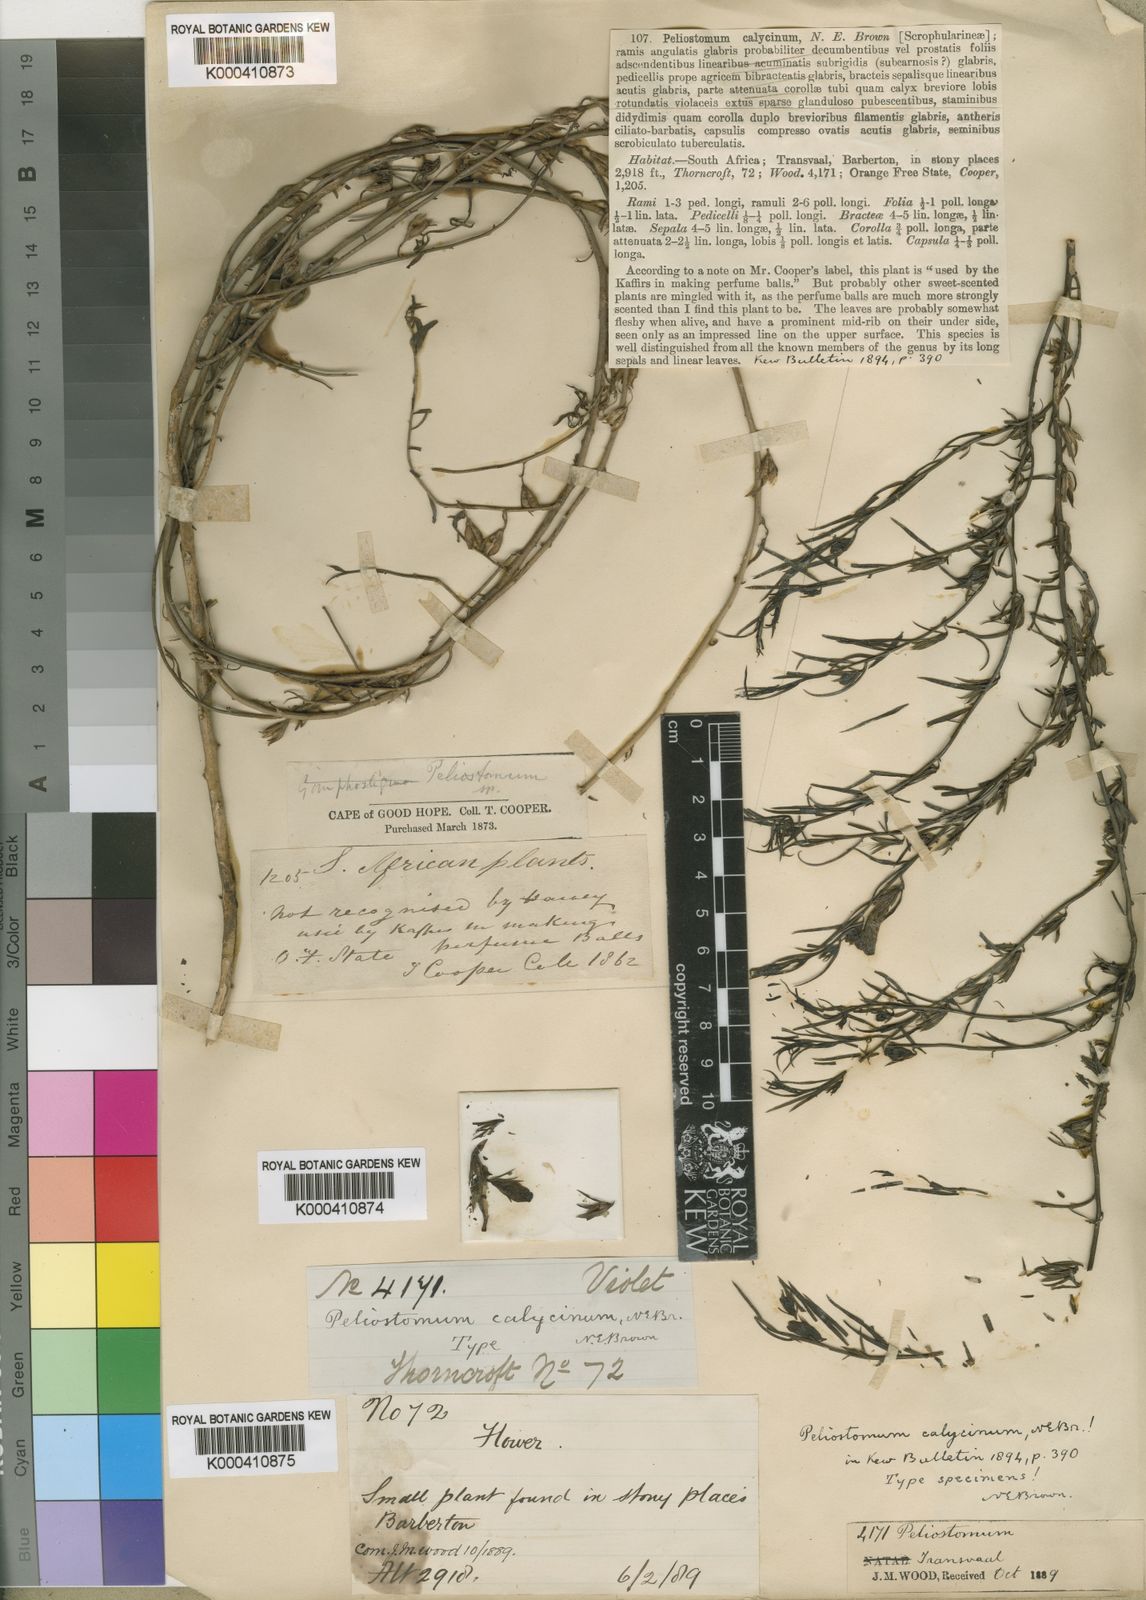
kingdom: Plantae
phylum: Tracheophyta
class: Magnoliopsida
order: Lamiales
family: Scrophulariaceae
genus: Peliostomum
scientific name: Peliostomum calycinum
